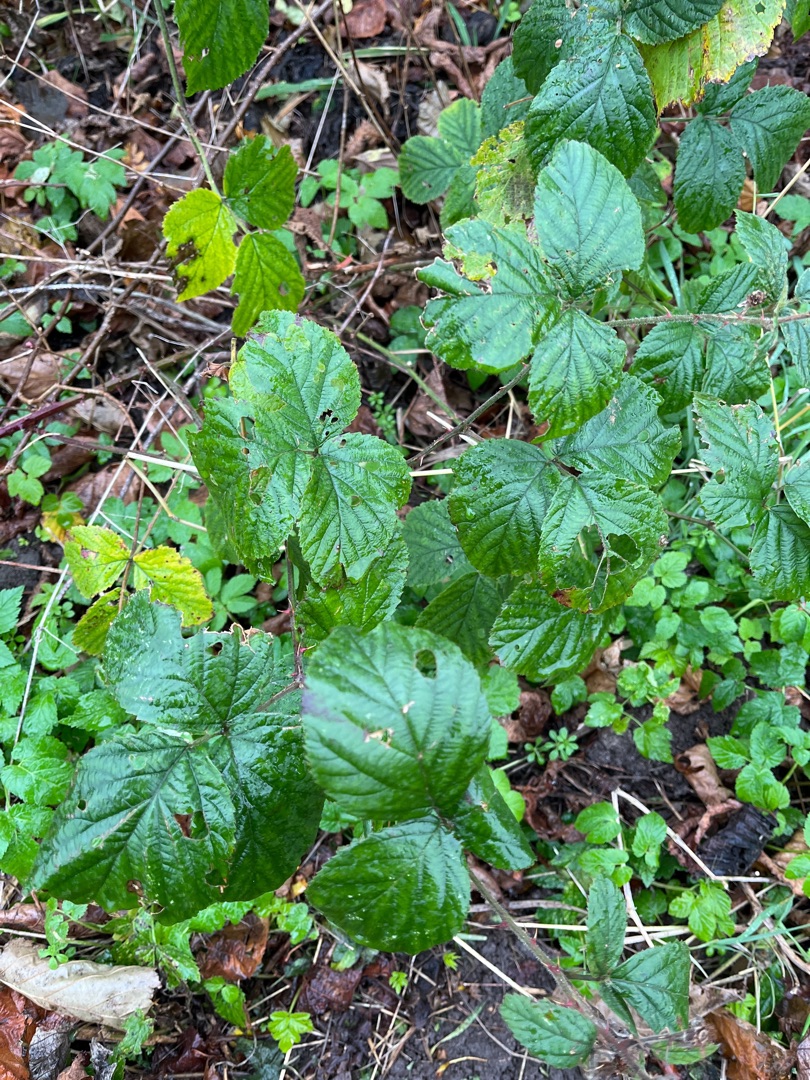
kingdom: Plantae
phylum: Tracheophyta
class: Magnoliopsida
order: Rosales
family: Rosaceae
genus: Rubus
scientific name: Rubus vestitus
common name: Rundbladet brombær
